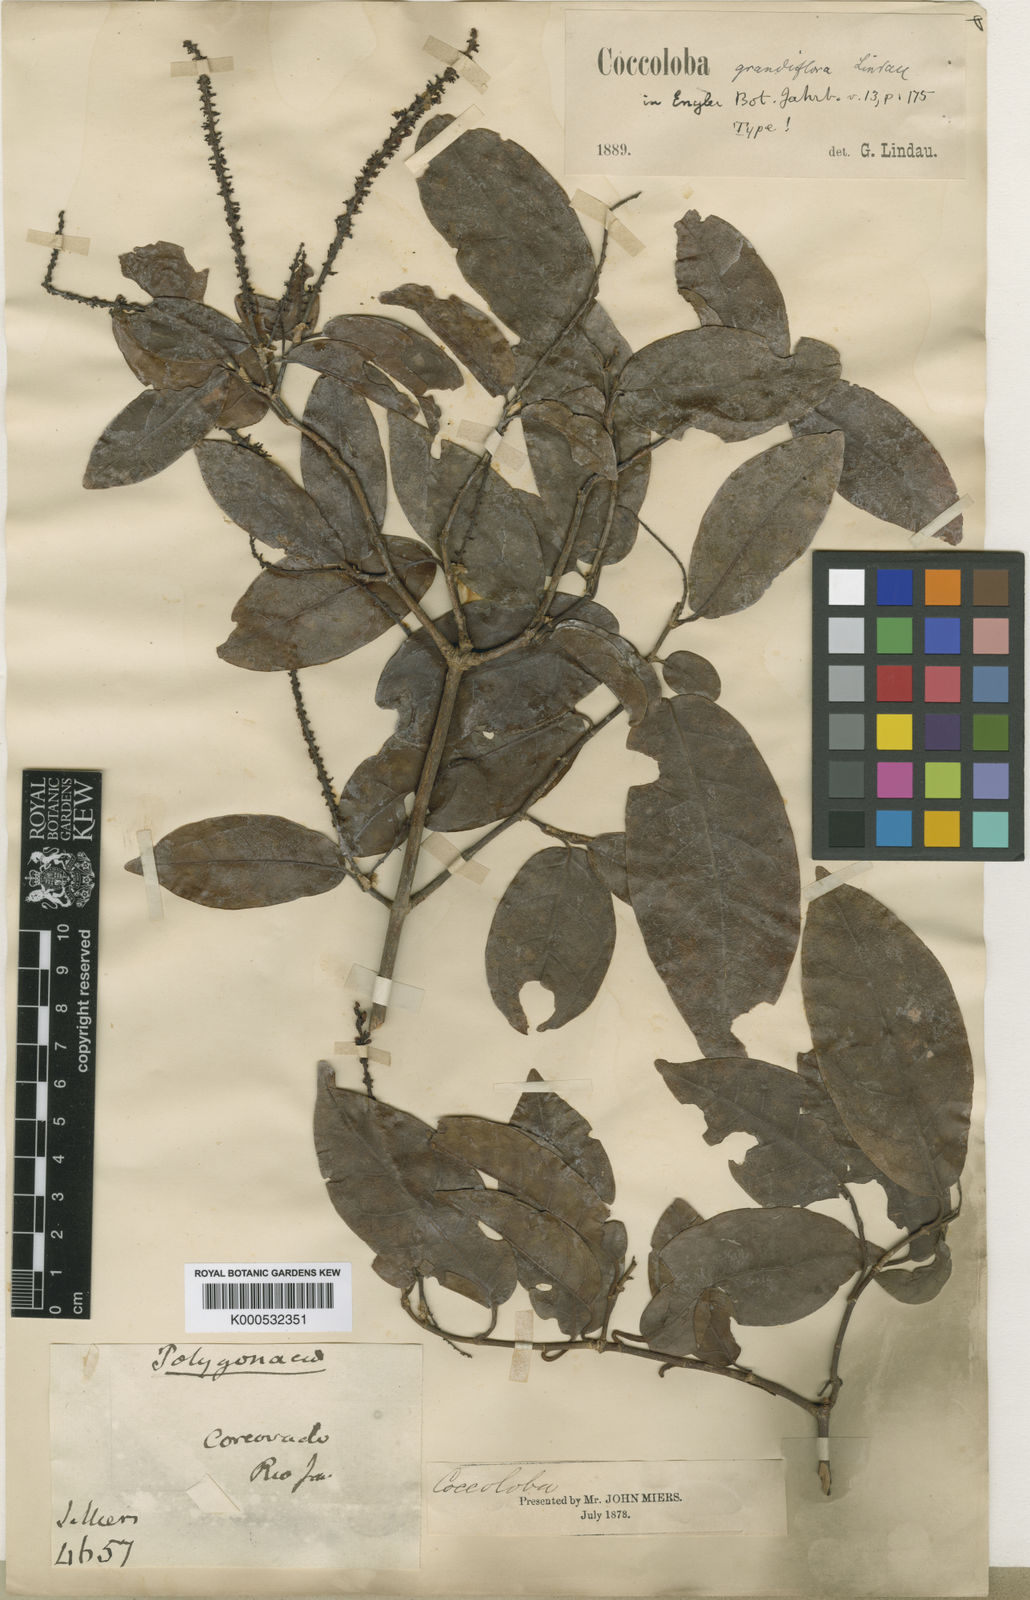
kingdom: Plantae
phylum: Tracheophyta
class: Magnoliopsida
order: Caryophyllales
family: Polygonaceae
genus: Coccoloba
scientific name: Coccoloba pubescens
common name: Mountain-grape
